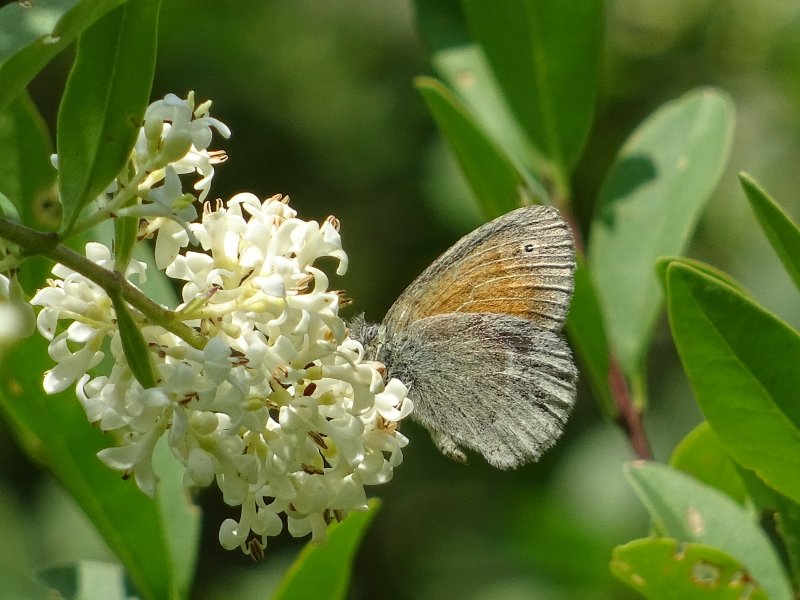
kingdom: Animalia
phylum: Arthropoda
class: Insecta
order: Lepidoptera
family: Nymphalidae
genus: Coenonympha
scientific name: Coenonympha tullia
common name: Large Heath
